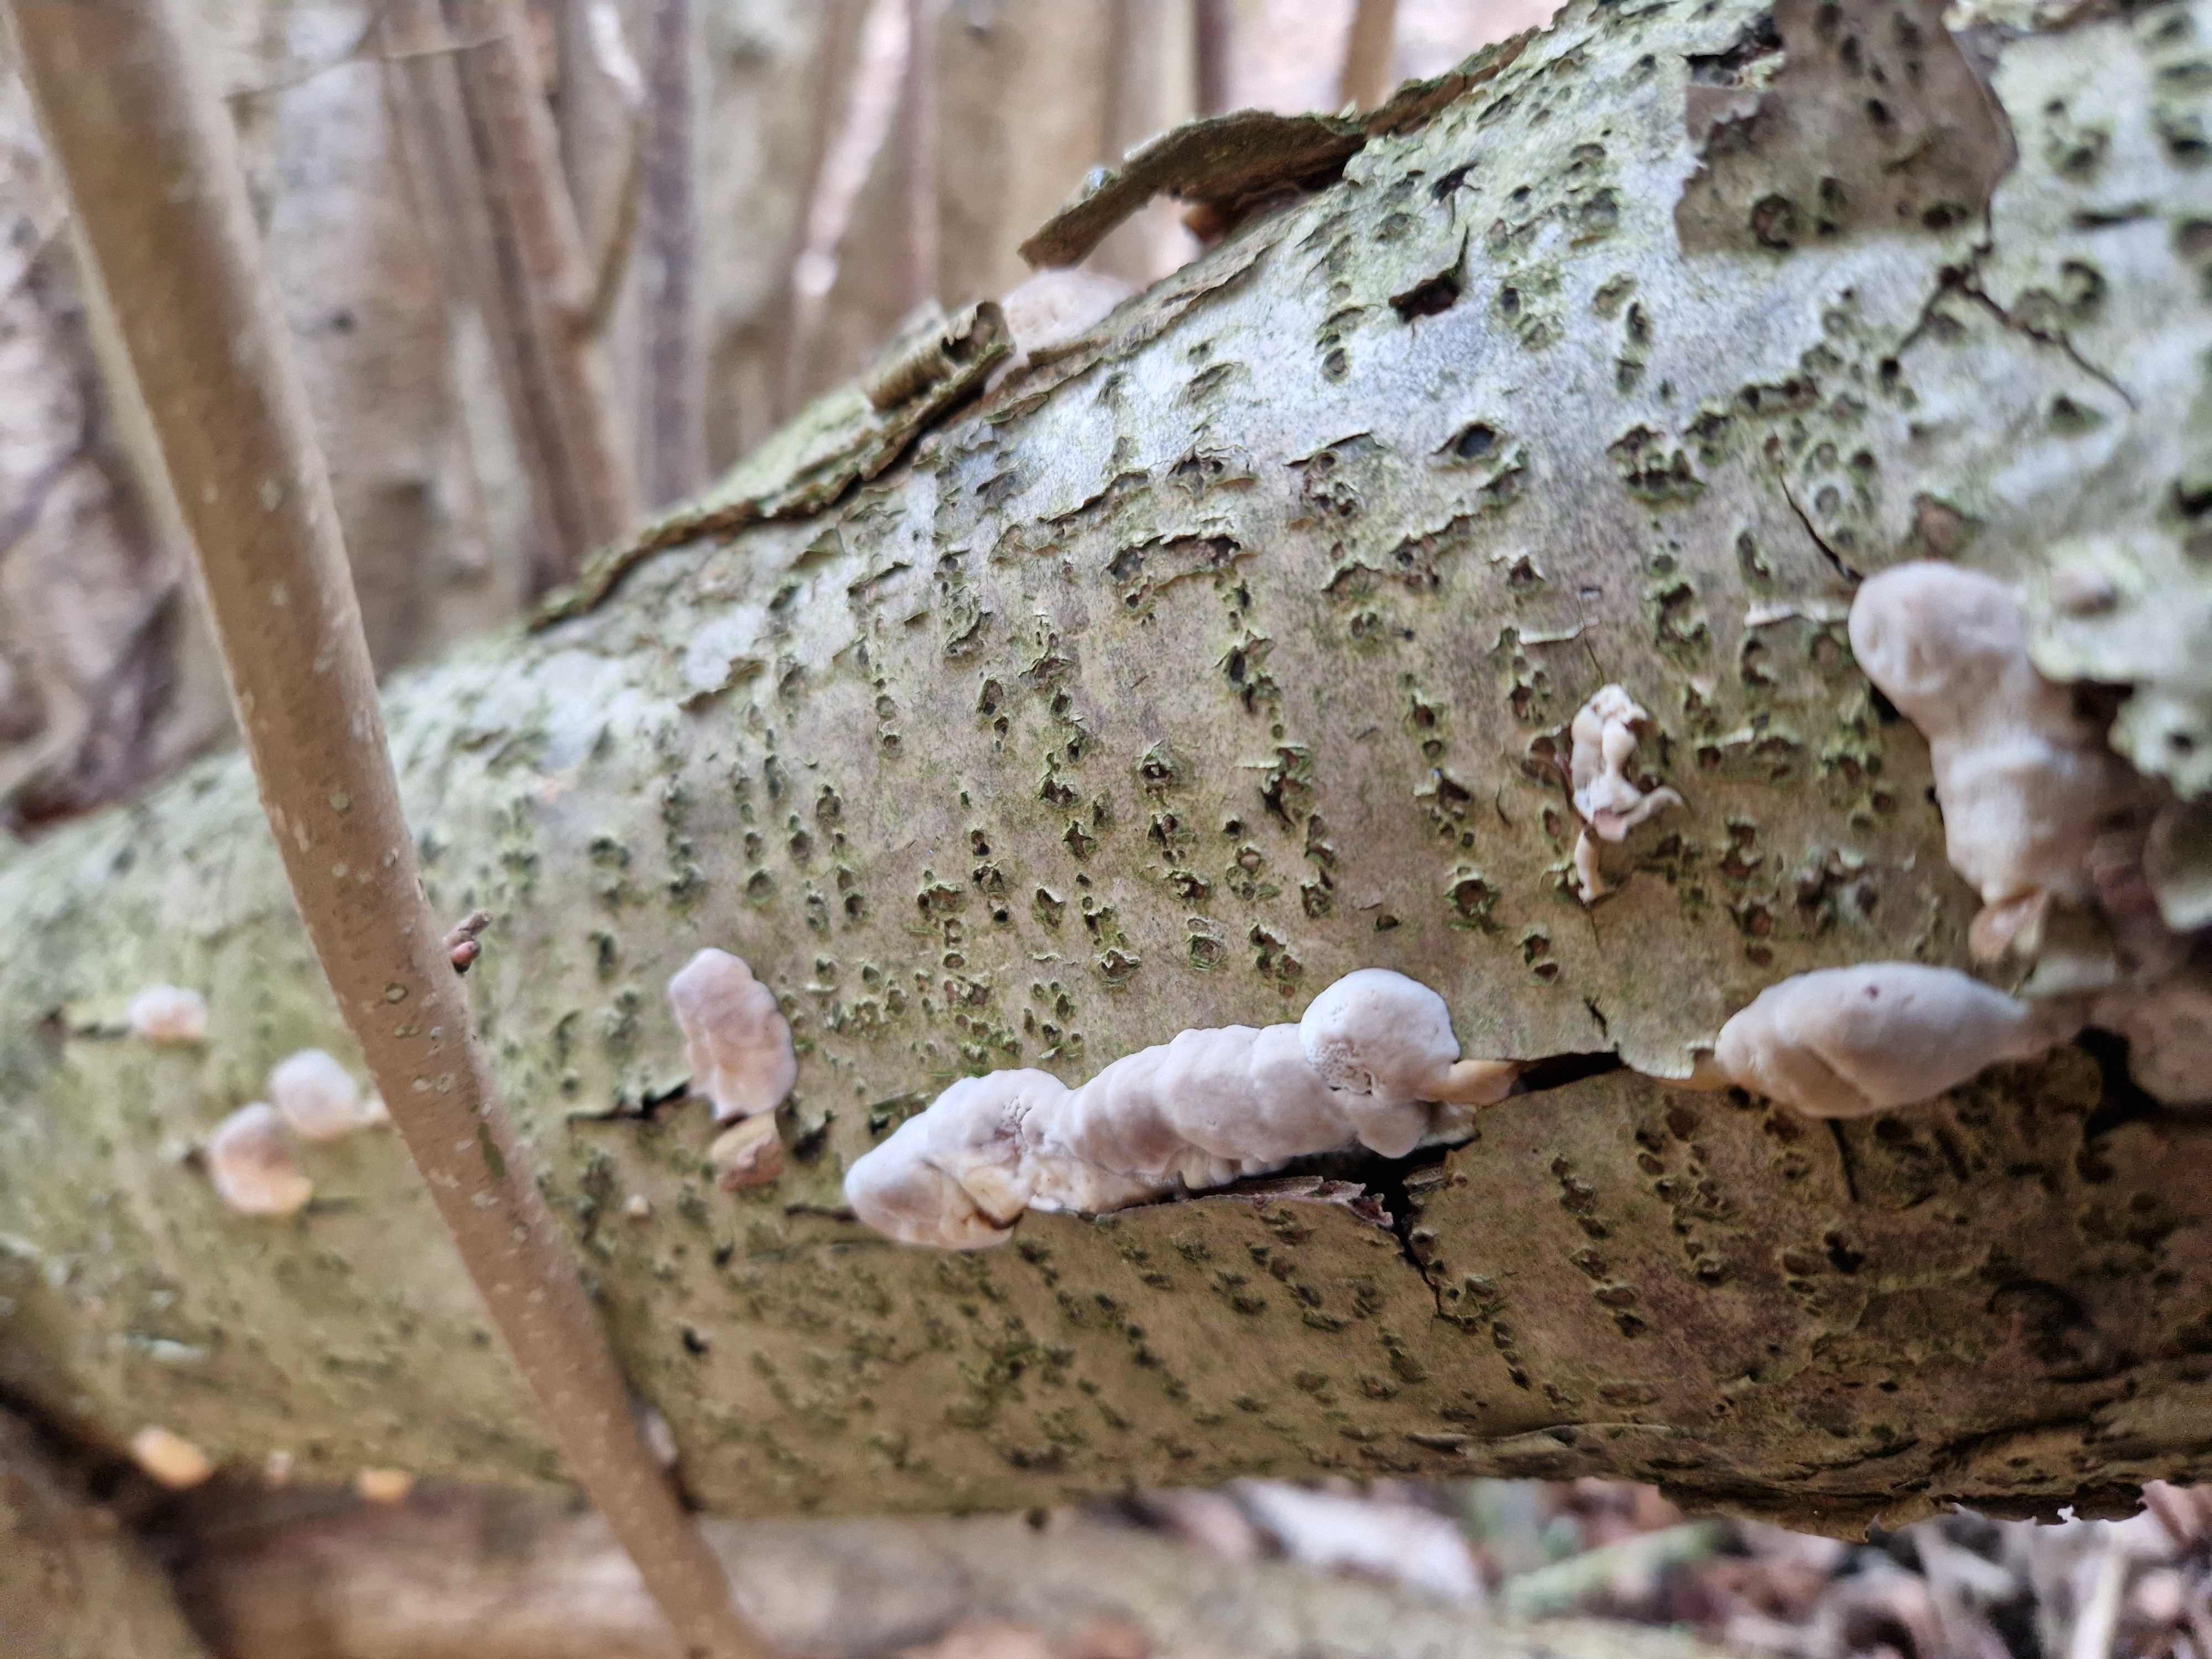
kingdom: Fungi
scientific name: Fungi
